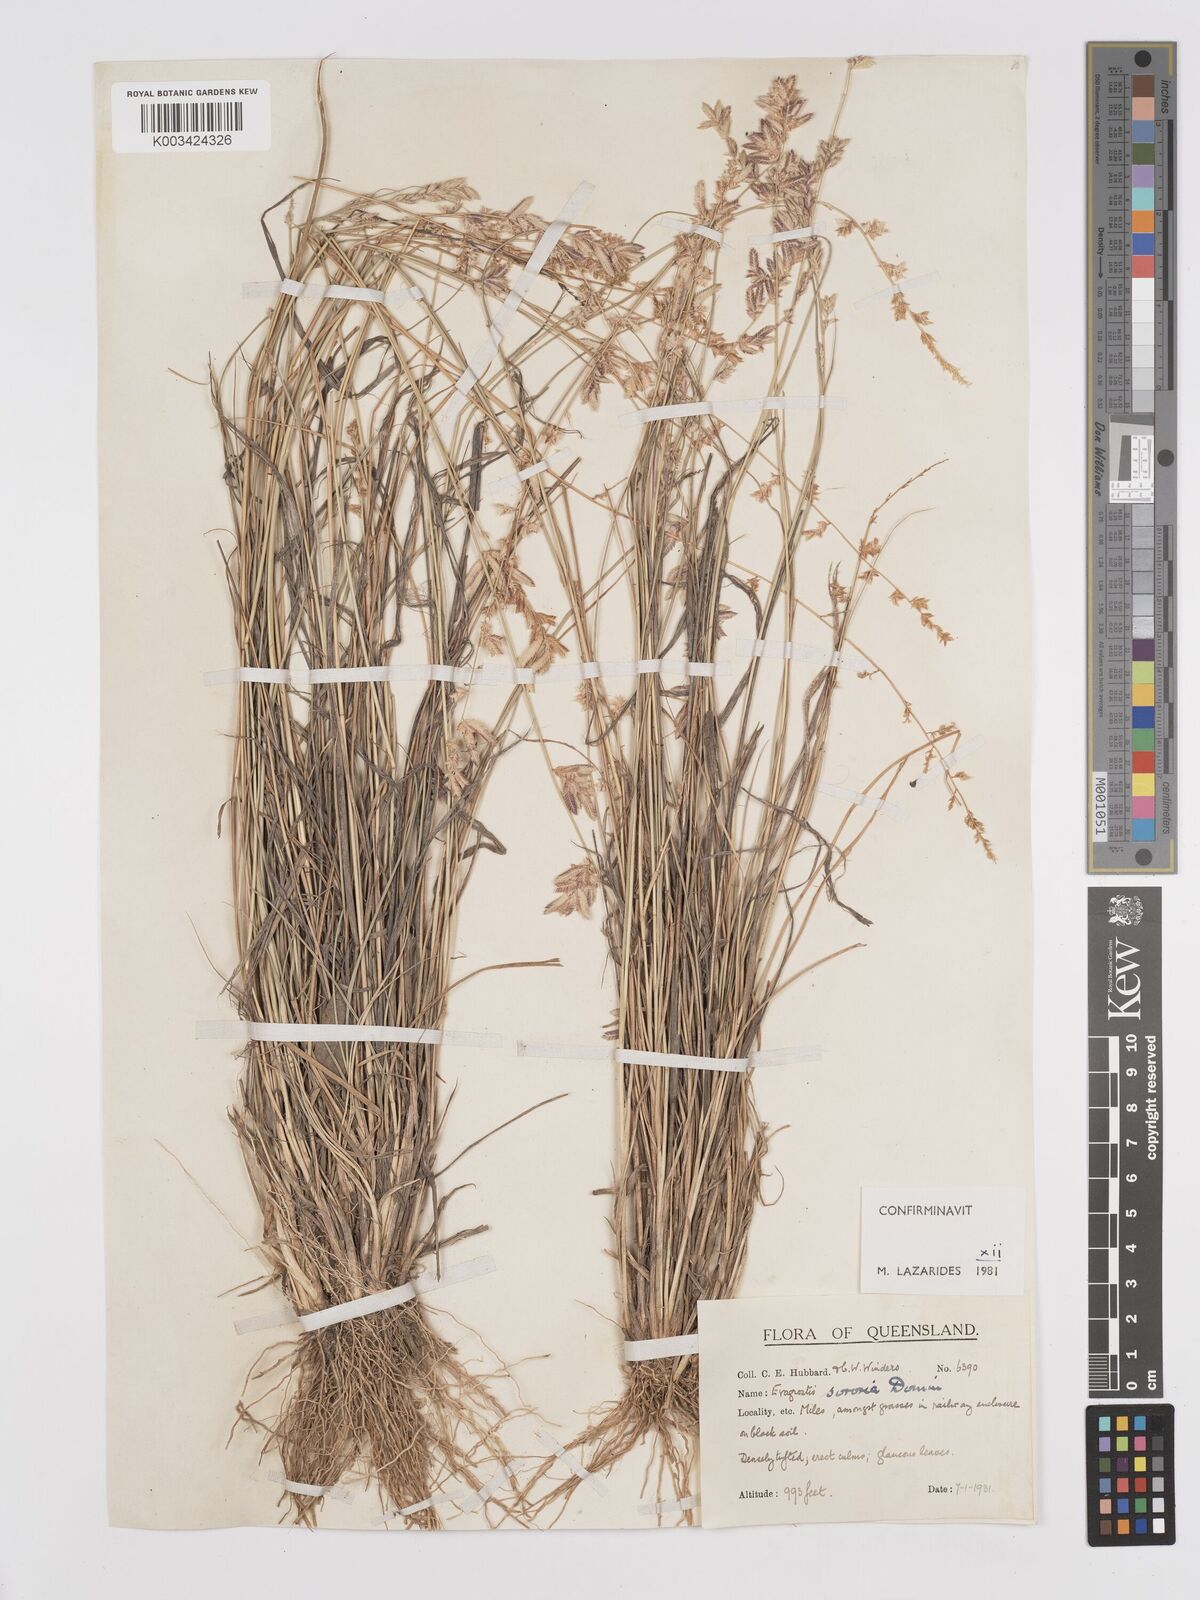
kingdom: Plantae
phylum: Tracheophyta
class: Liliopsida
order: Poales
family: Poaceae
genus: Eragrostis
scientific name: Eragrostis sororia
